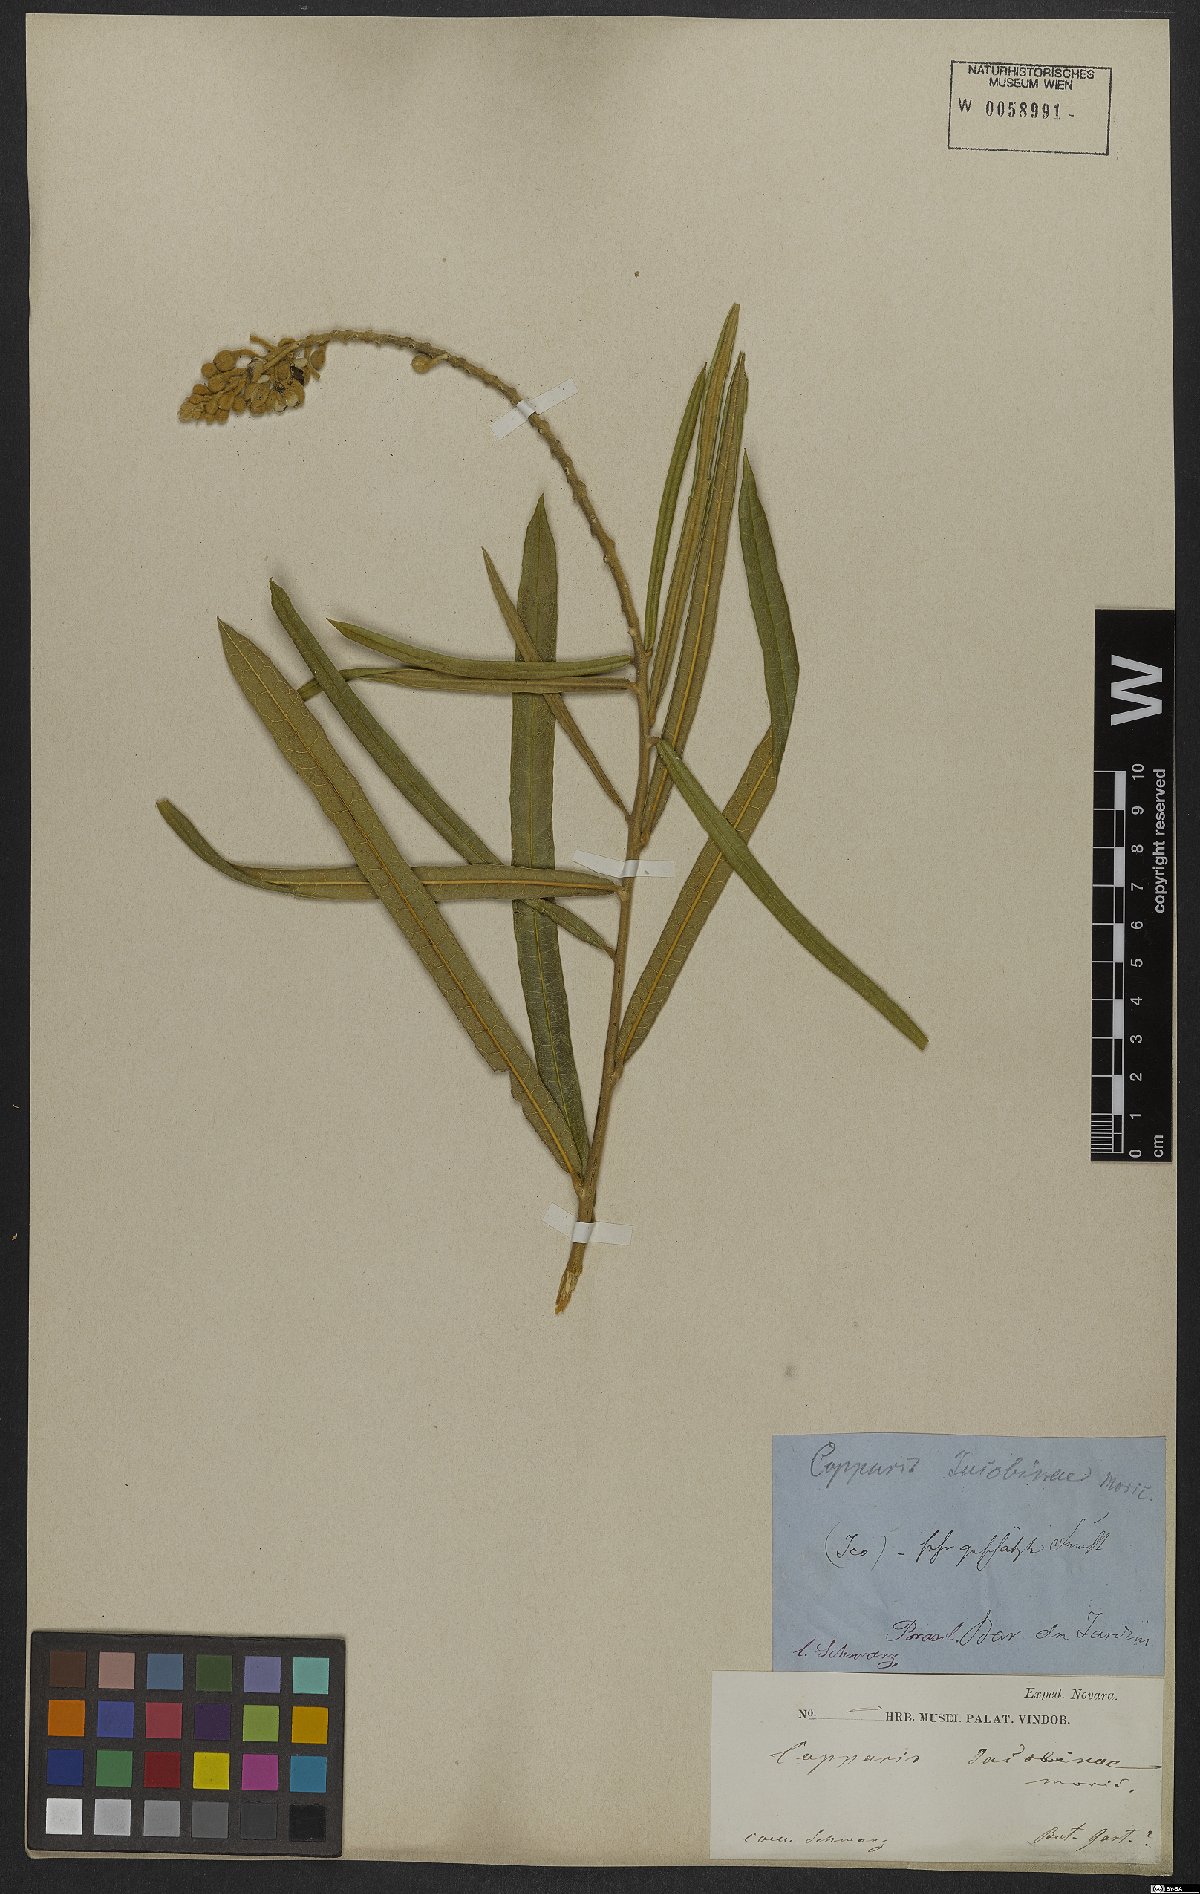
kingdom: Plantae
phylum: Tracheophyta
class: Magnoliopsida
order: Brassicales
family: Capparaceae
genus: Neocalyptrocalyx
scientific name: Neocalyptrocalyx longifolium
